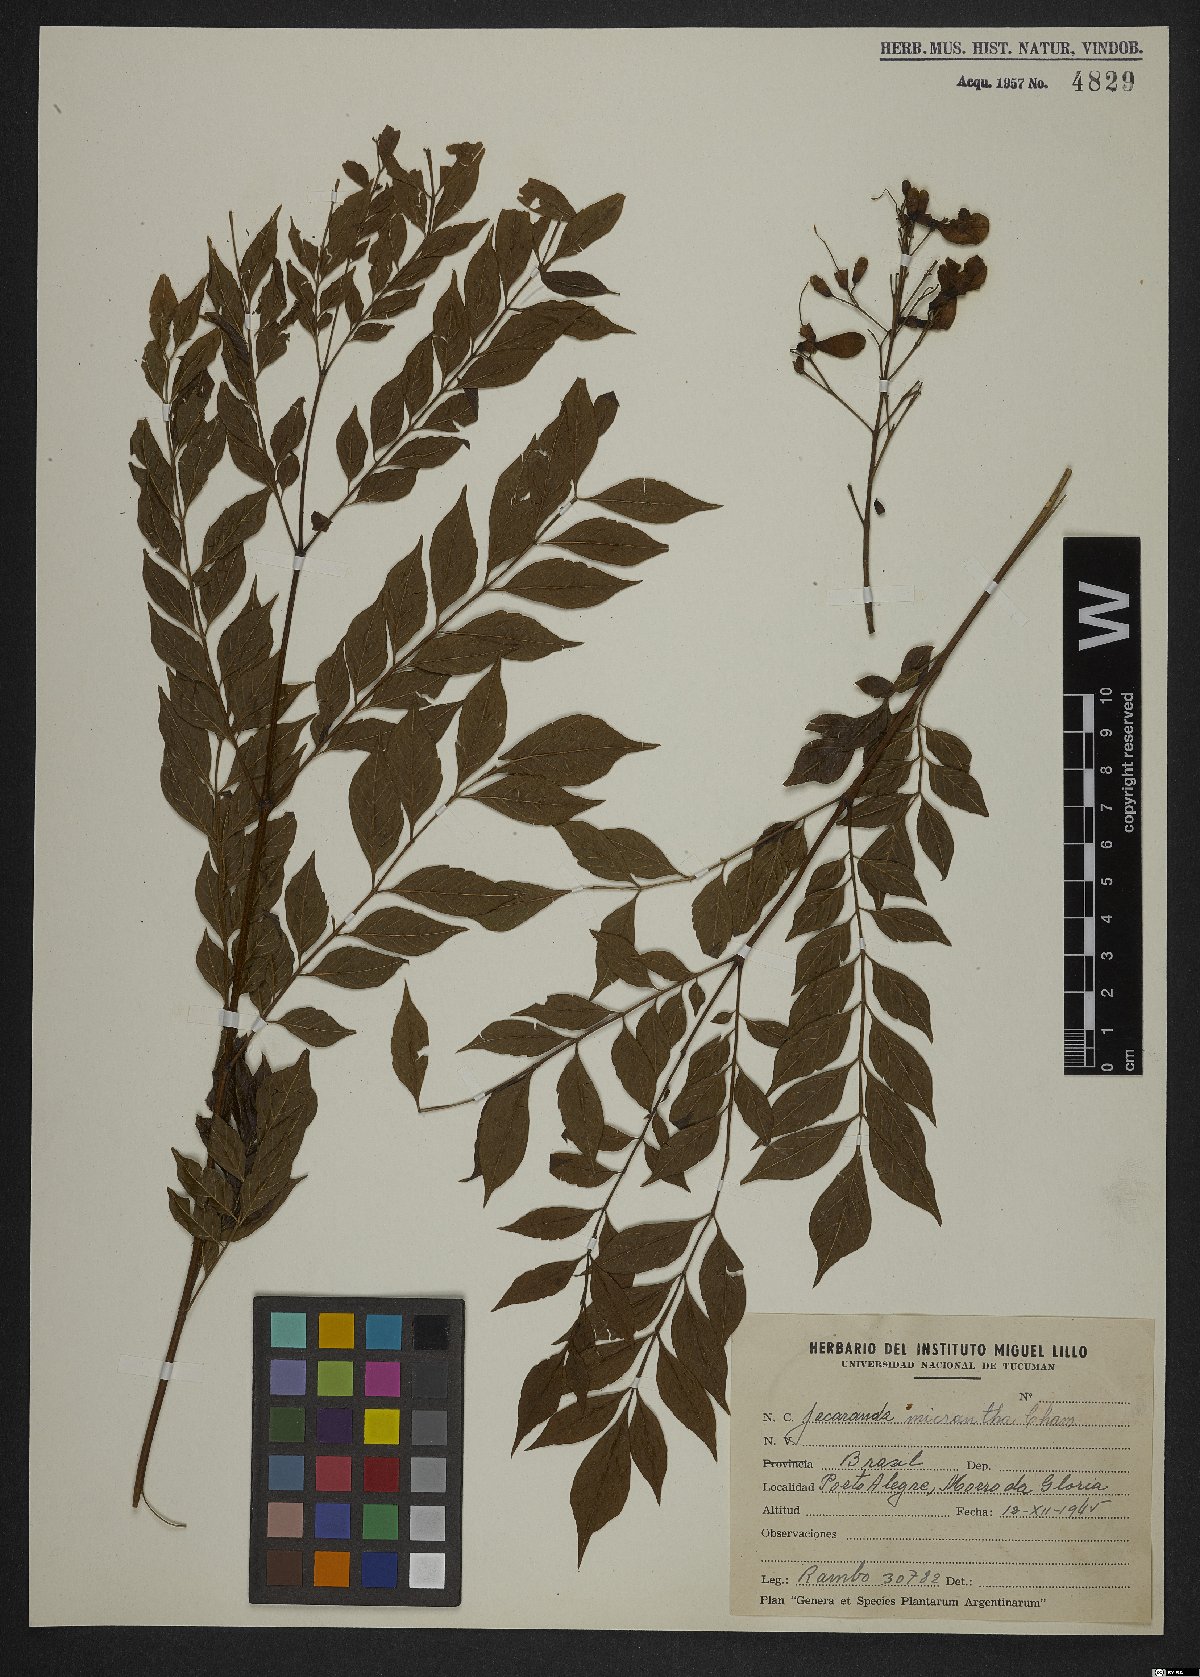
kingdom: Plantae
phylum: Tracheophyta
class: Magnoliopsida
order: Lamiales
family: Bignoniaceae
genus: Jacaranda
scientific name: Jacaranda micrantha
